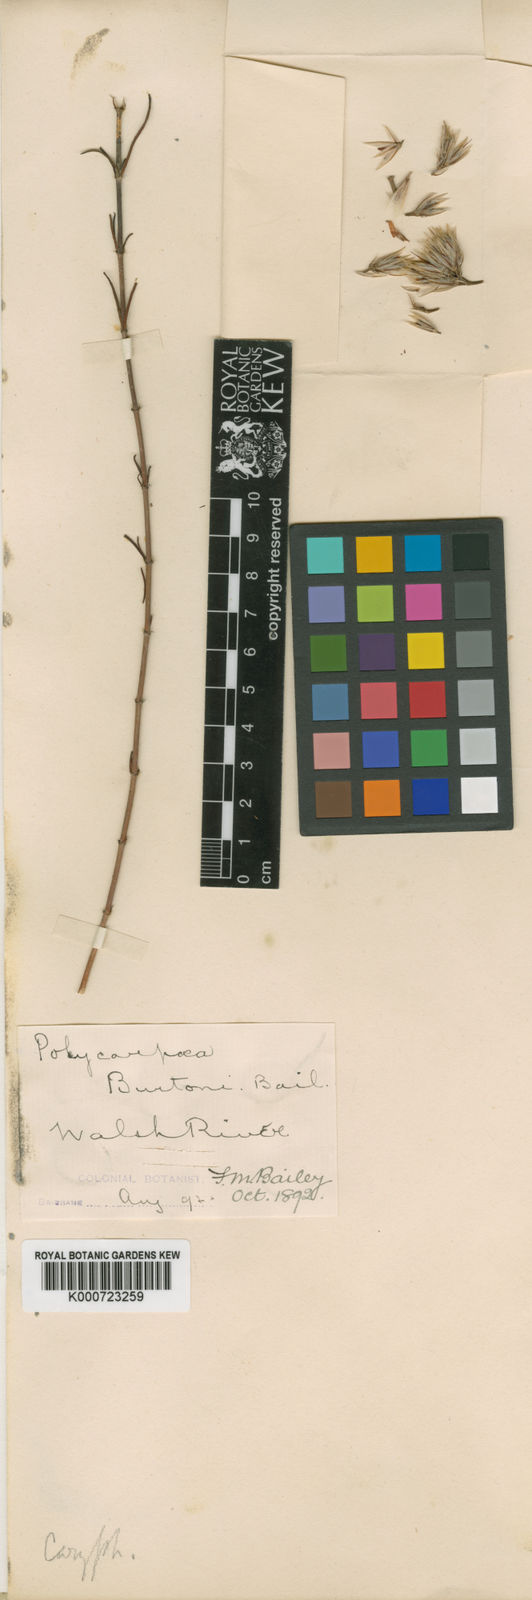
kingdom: Plantae
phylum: Tracheophyta
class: Magnoliopsida
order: Caryophyllales
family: Caryophyllaceae
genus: Polycarpaea
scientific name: Polycarpaea spirostylis
